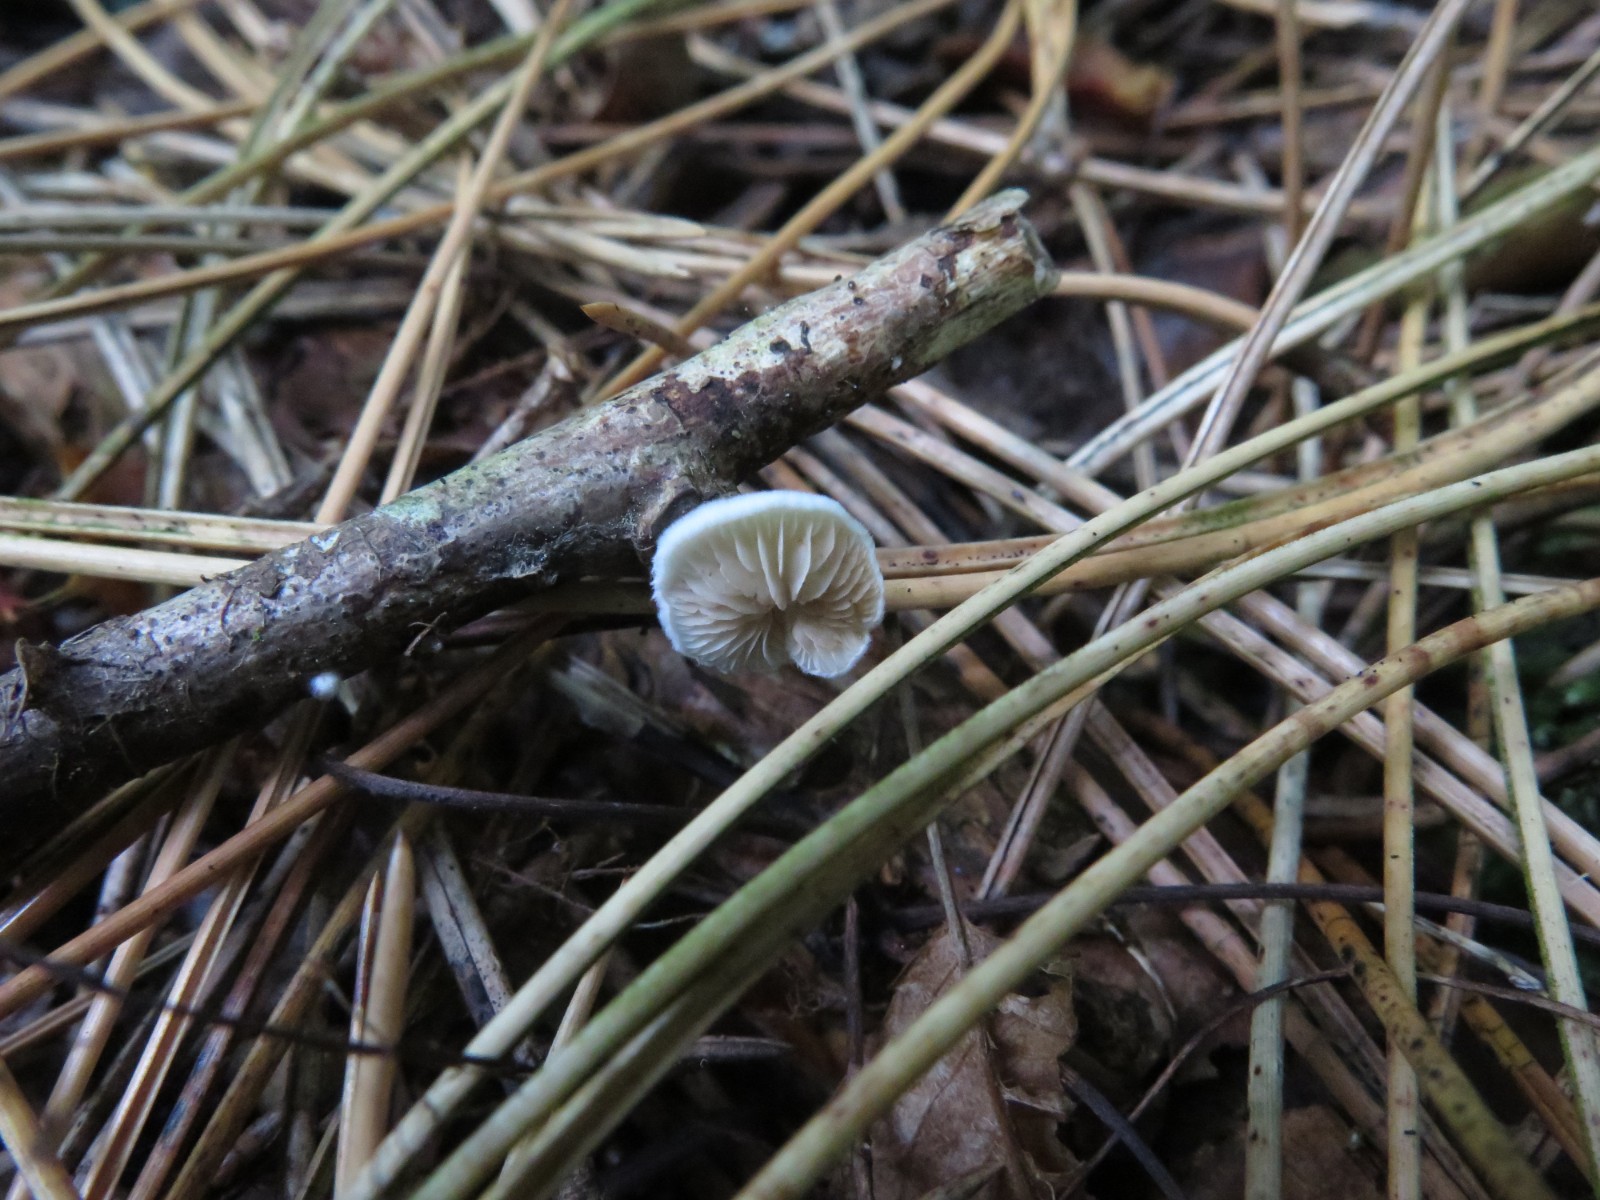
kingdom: Fungi
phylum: Basidiomycota
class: Agaricomycetes
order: Agaricales
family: Crepidotaceae
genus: Crepidotus
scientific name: Crepidotus cesatii
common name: almindelig muslingesvamp
